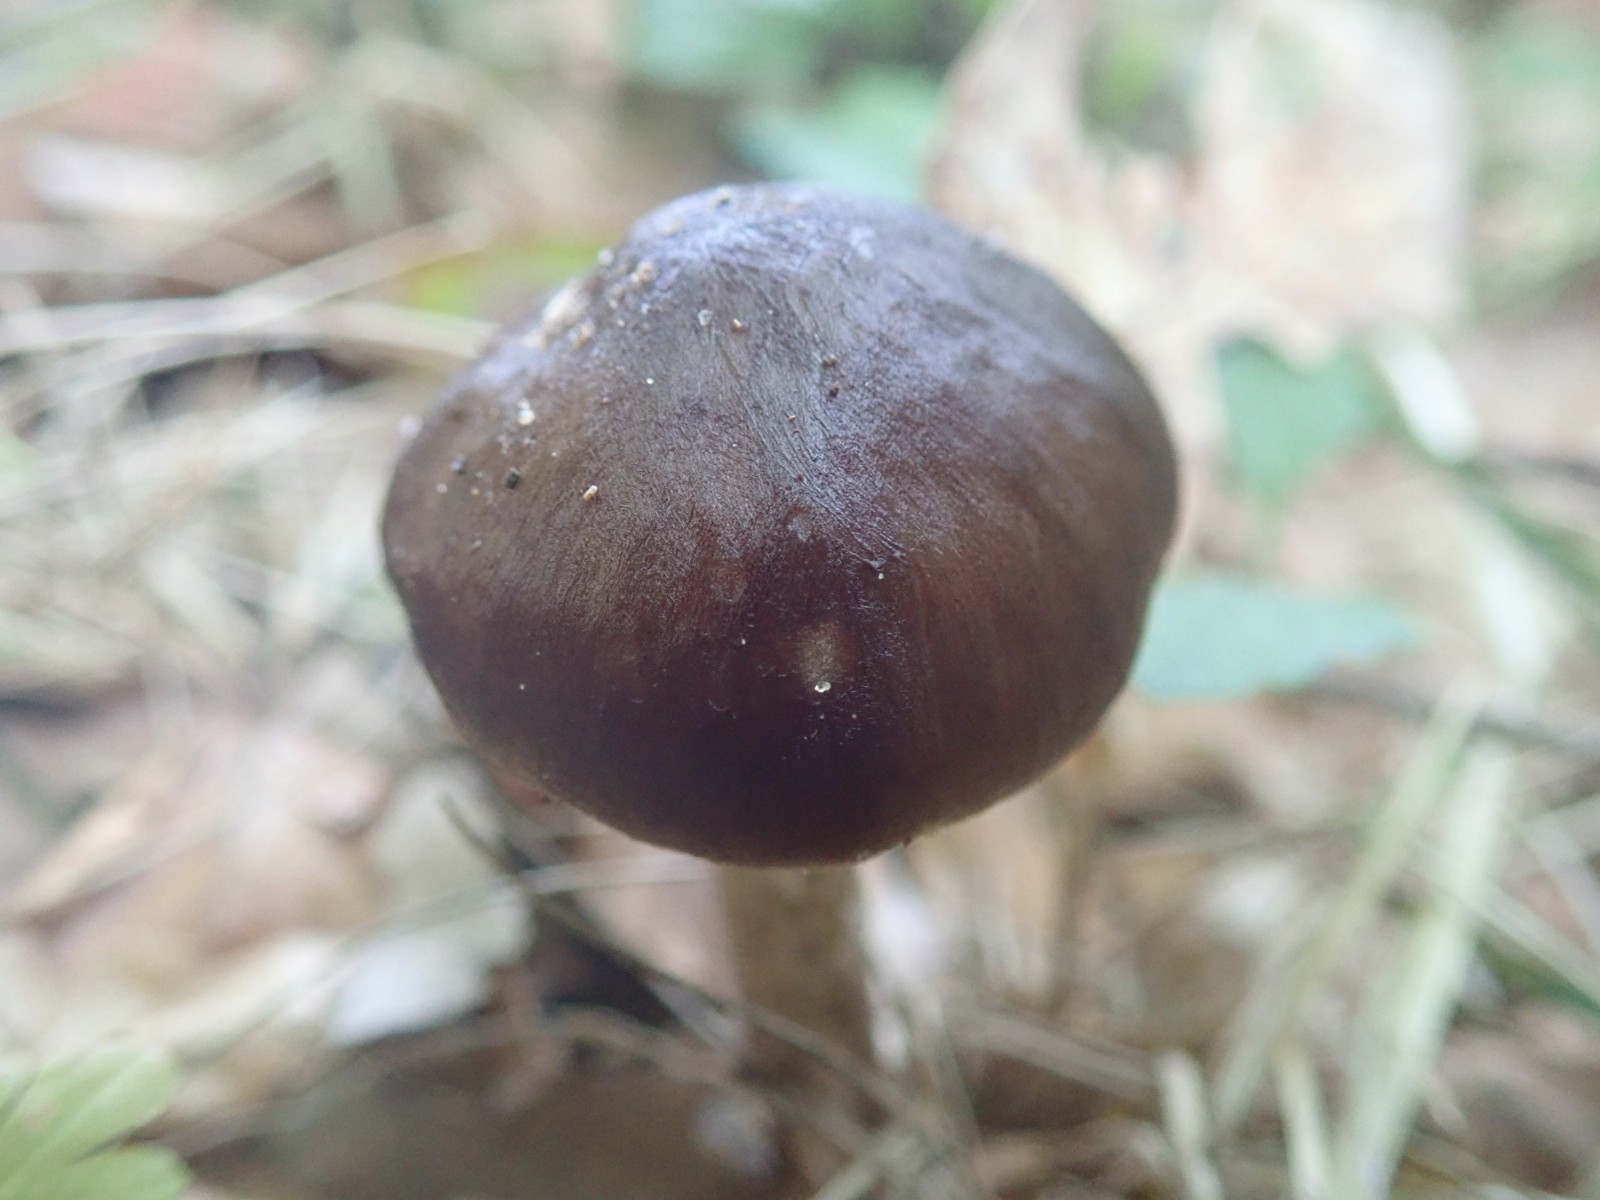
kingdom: Fungi
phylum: Basidiomycota
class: Agaricomycetes
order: Agaricales
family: Pluteaceae
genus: Pluteus
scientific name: Pluteus cervinus
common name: sodfarvet skærmhat
